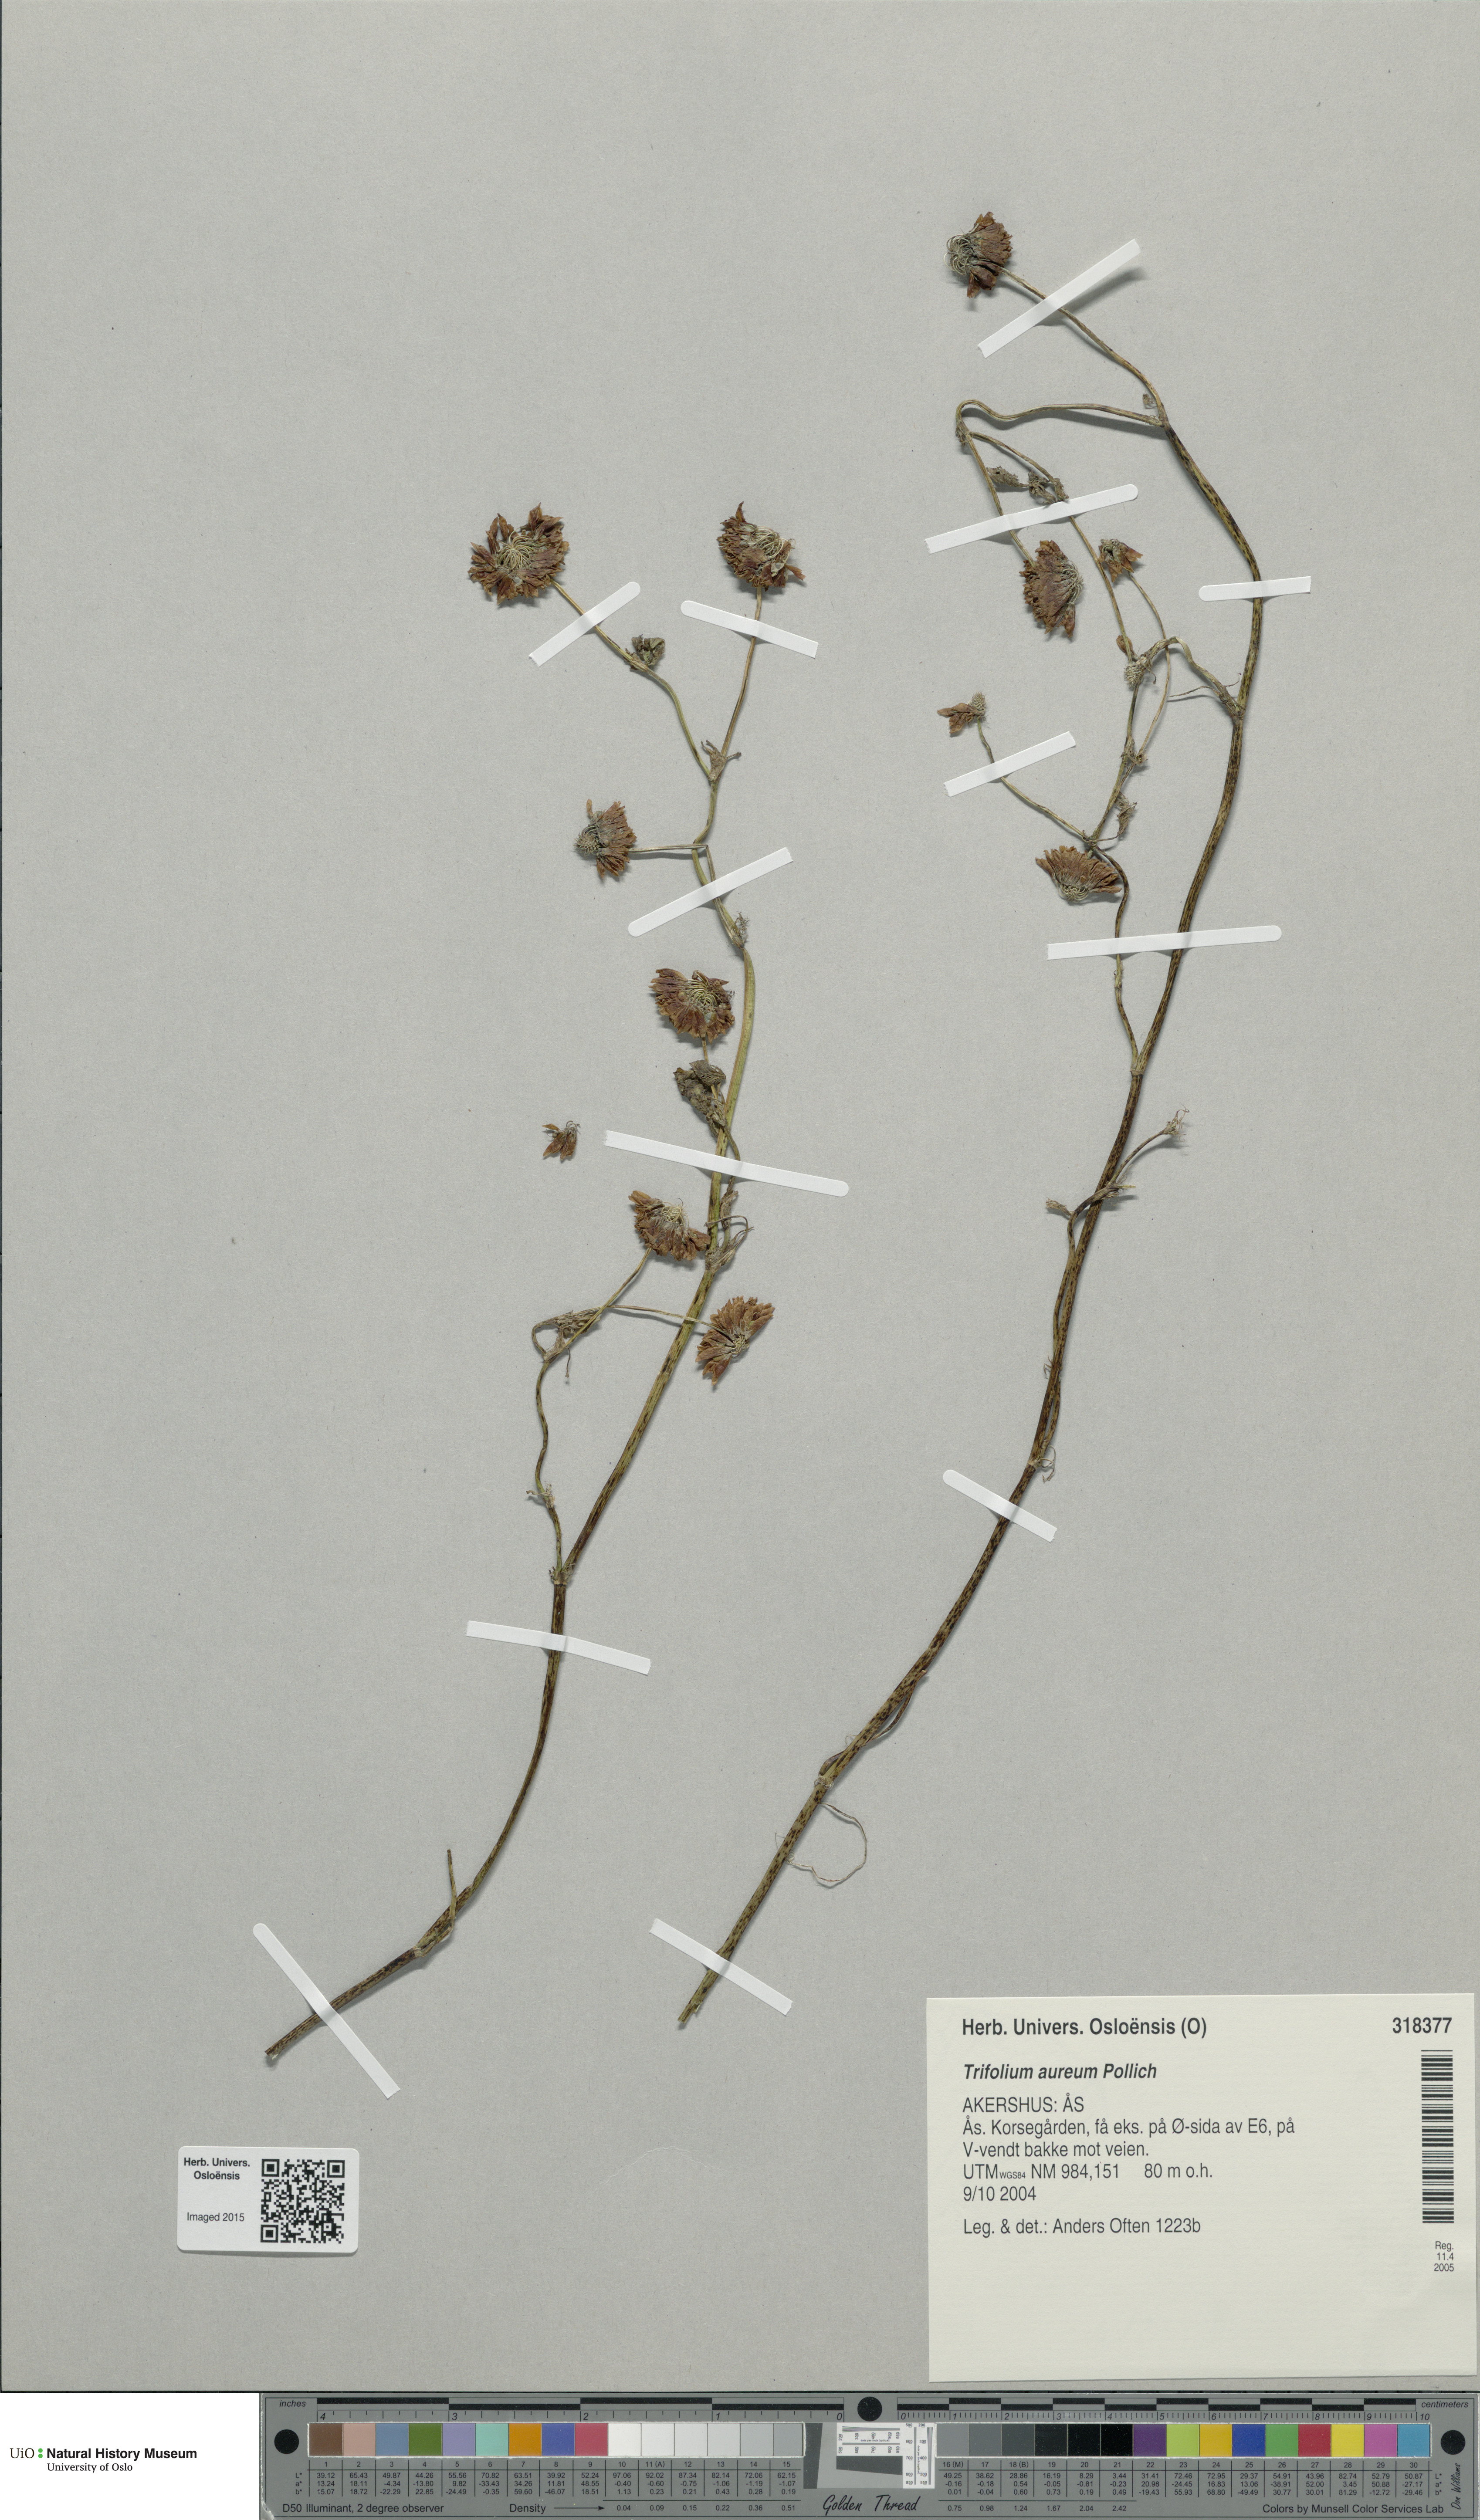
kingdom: Plantae
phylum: Tracheophyta
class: Magnoliopsida
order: Fabales
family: Fabaceae
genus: Trifolium
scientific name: Trifolium aureum
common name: Golden clover
